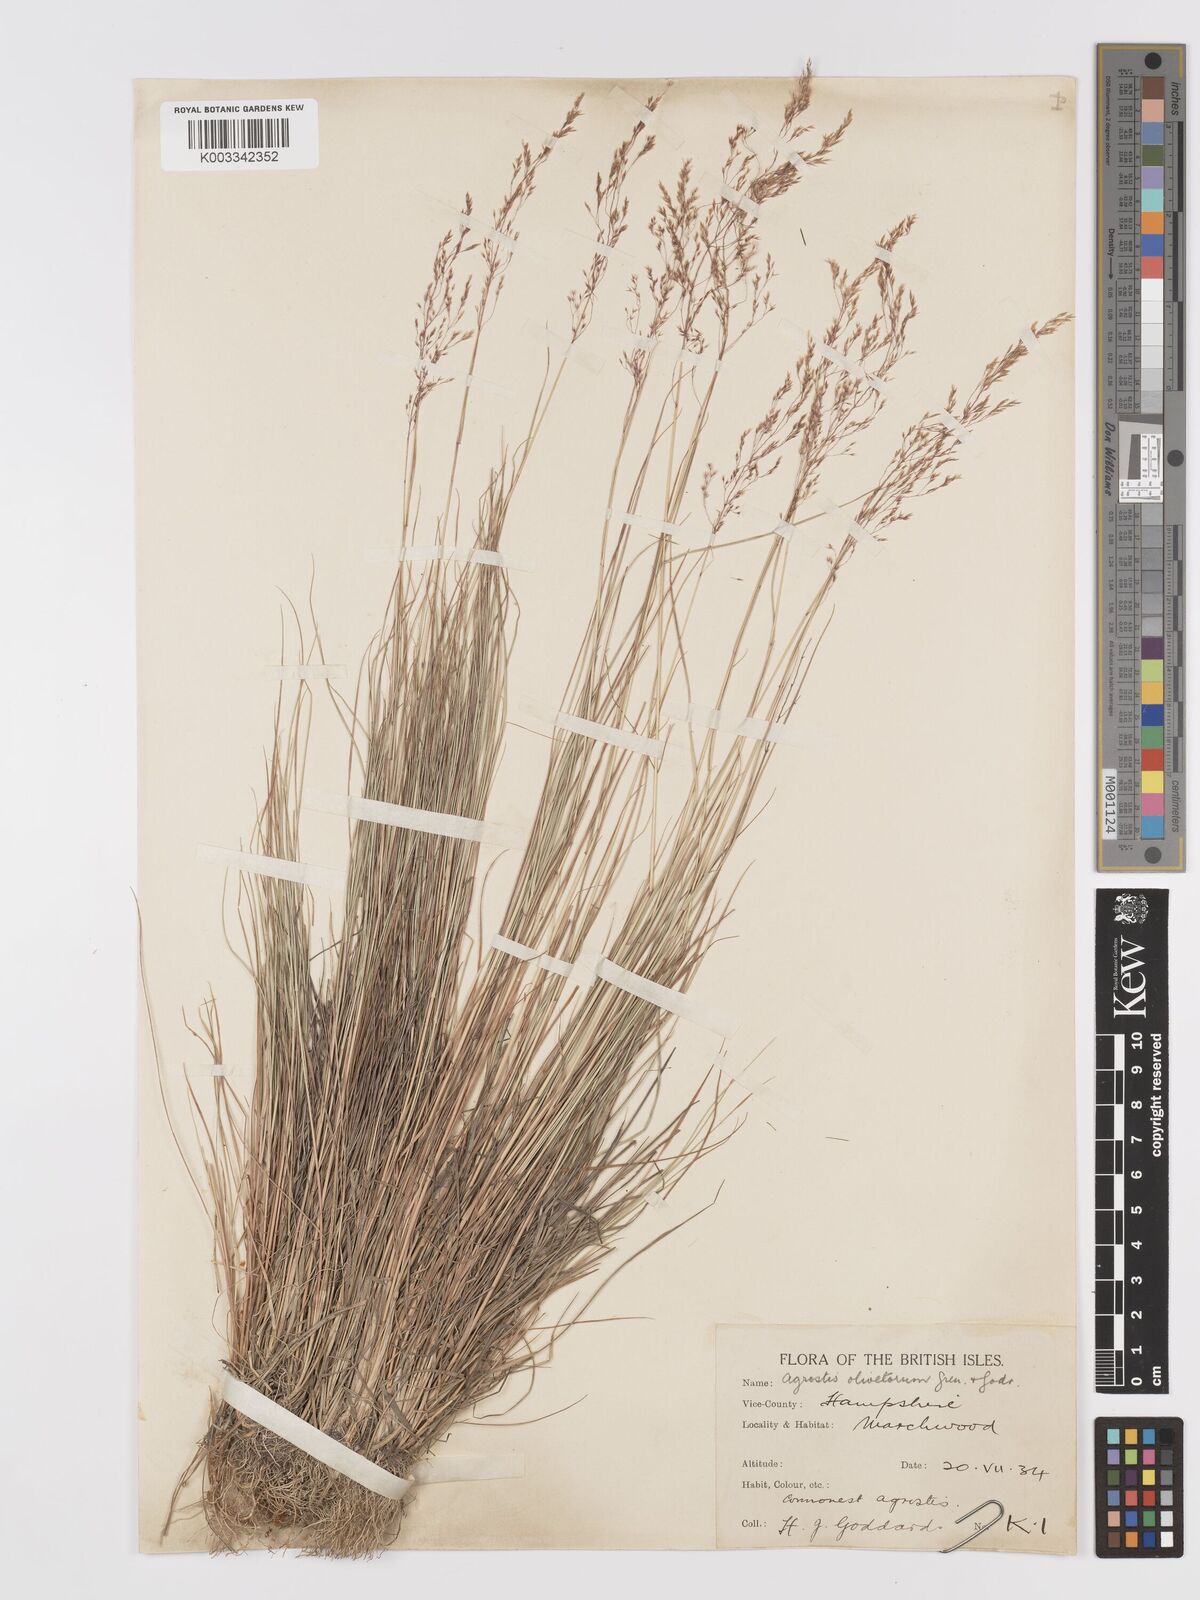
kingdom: Plantae
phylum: Tracheophyta
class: Liliopsida
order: Poales
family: Poaceae
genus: Agrostis
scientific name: Agrostis castellana
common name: Highland bent
